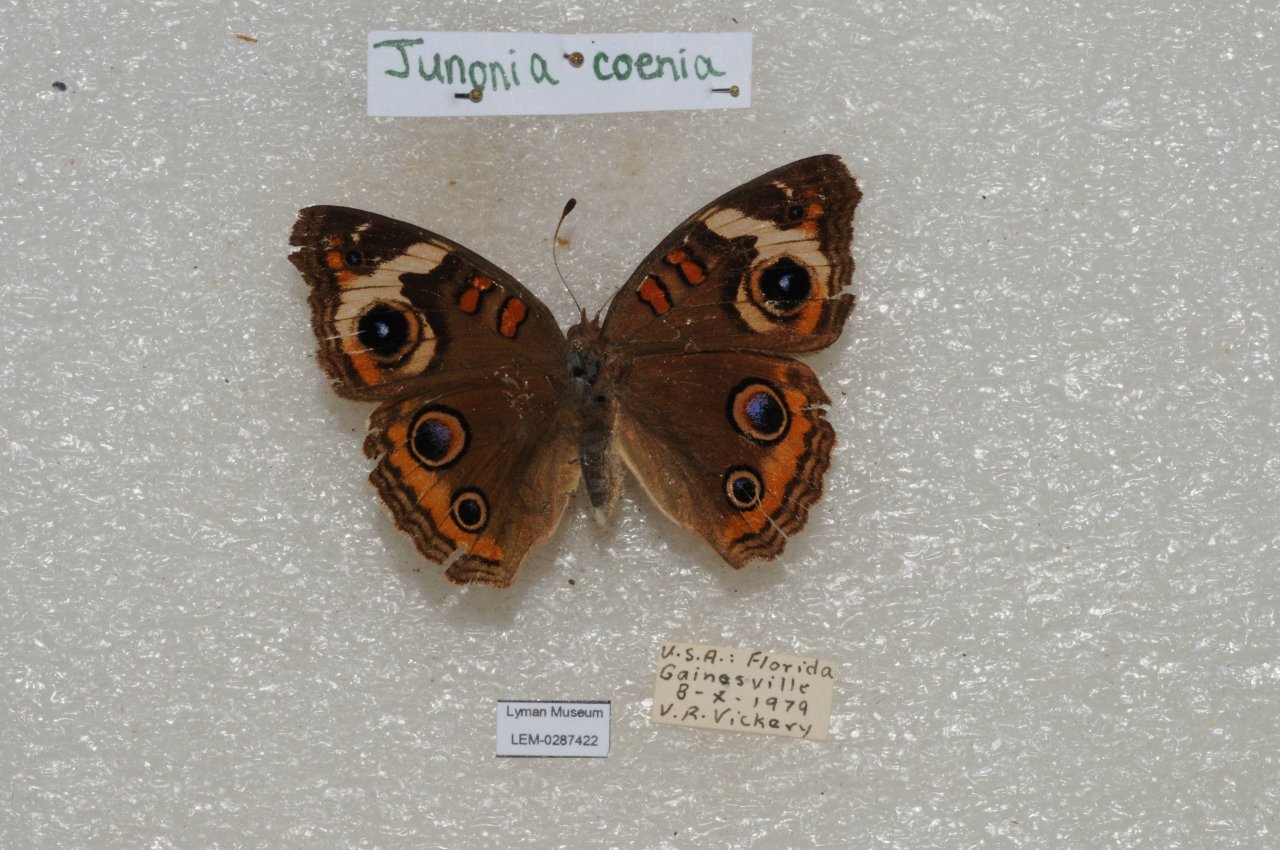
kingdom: Animalia
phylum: Arthropoda
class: Insecta
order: Lepidoptera
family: Nymphalidae
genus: Junonia
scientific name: Junonia coenia
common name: Common Buckeye
